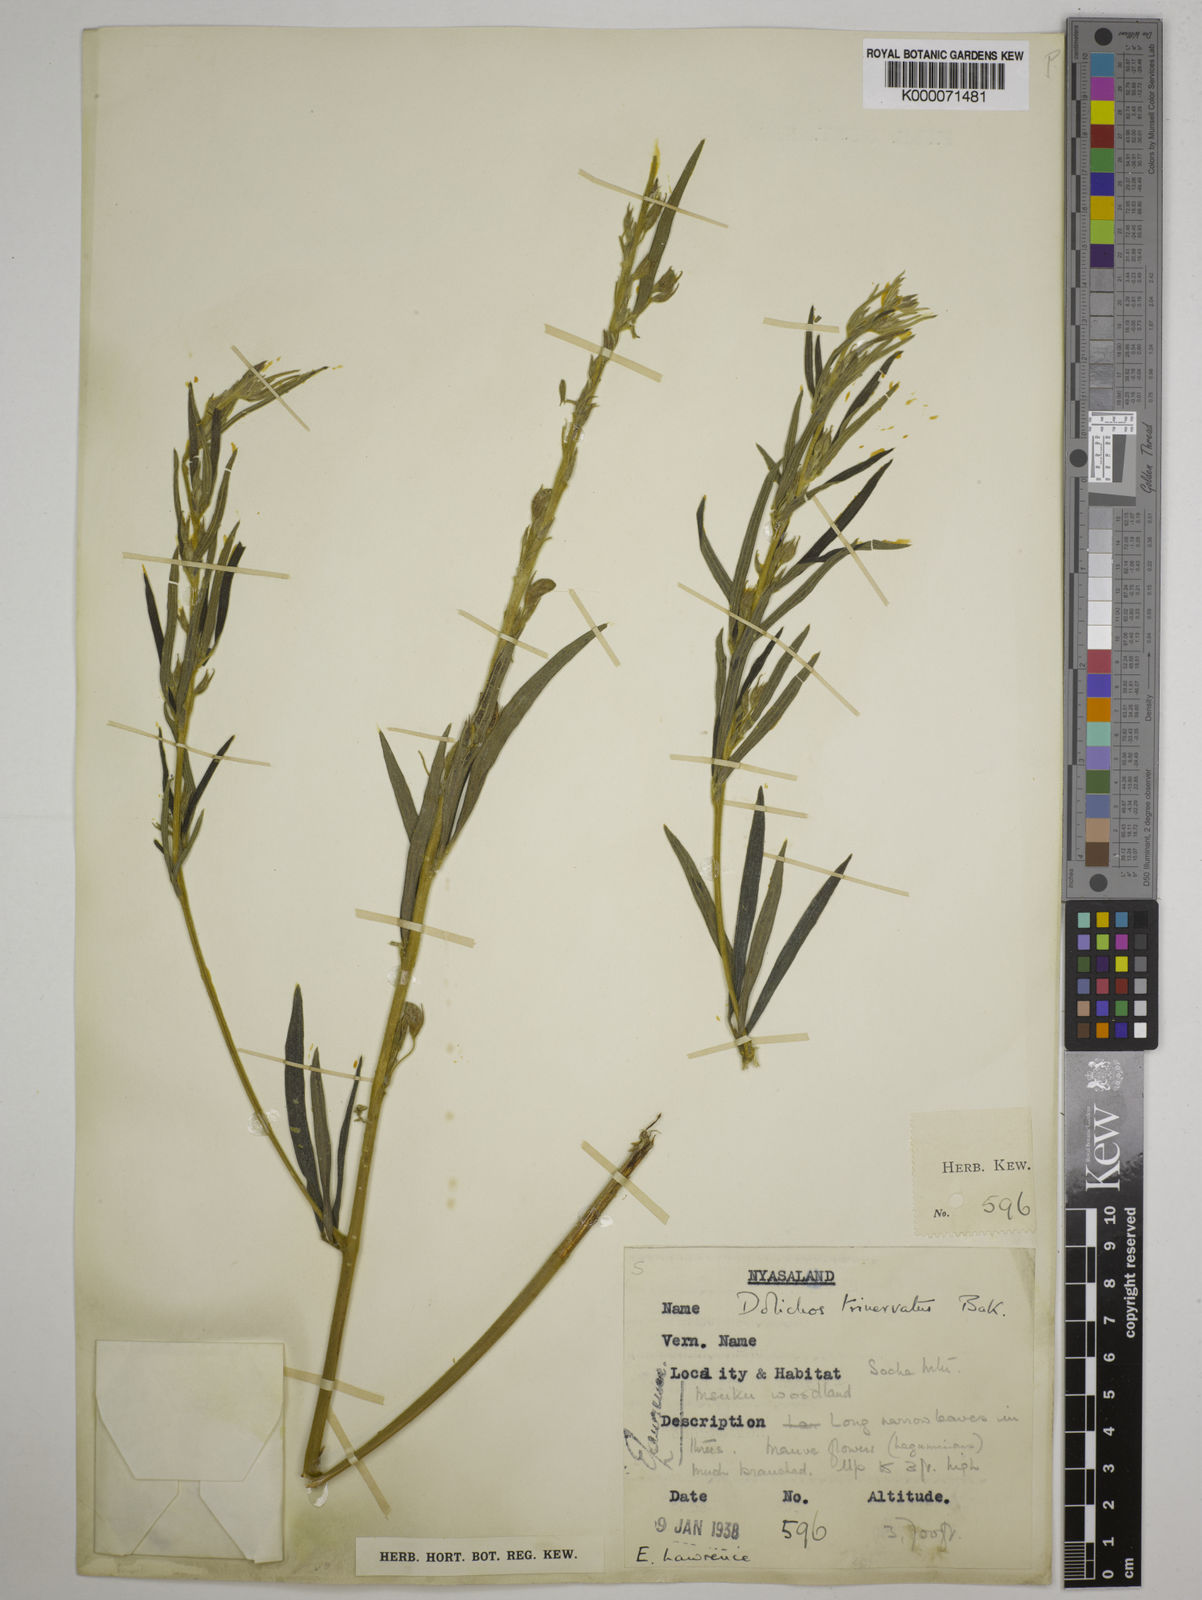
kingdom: Plantae
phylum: Tracheophyta
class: Magnoliopsida
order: Fabales
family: Fabaceae
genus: Dolichos
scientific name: Dolichos trinervatus
